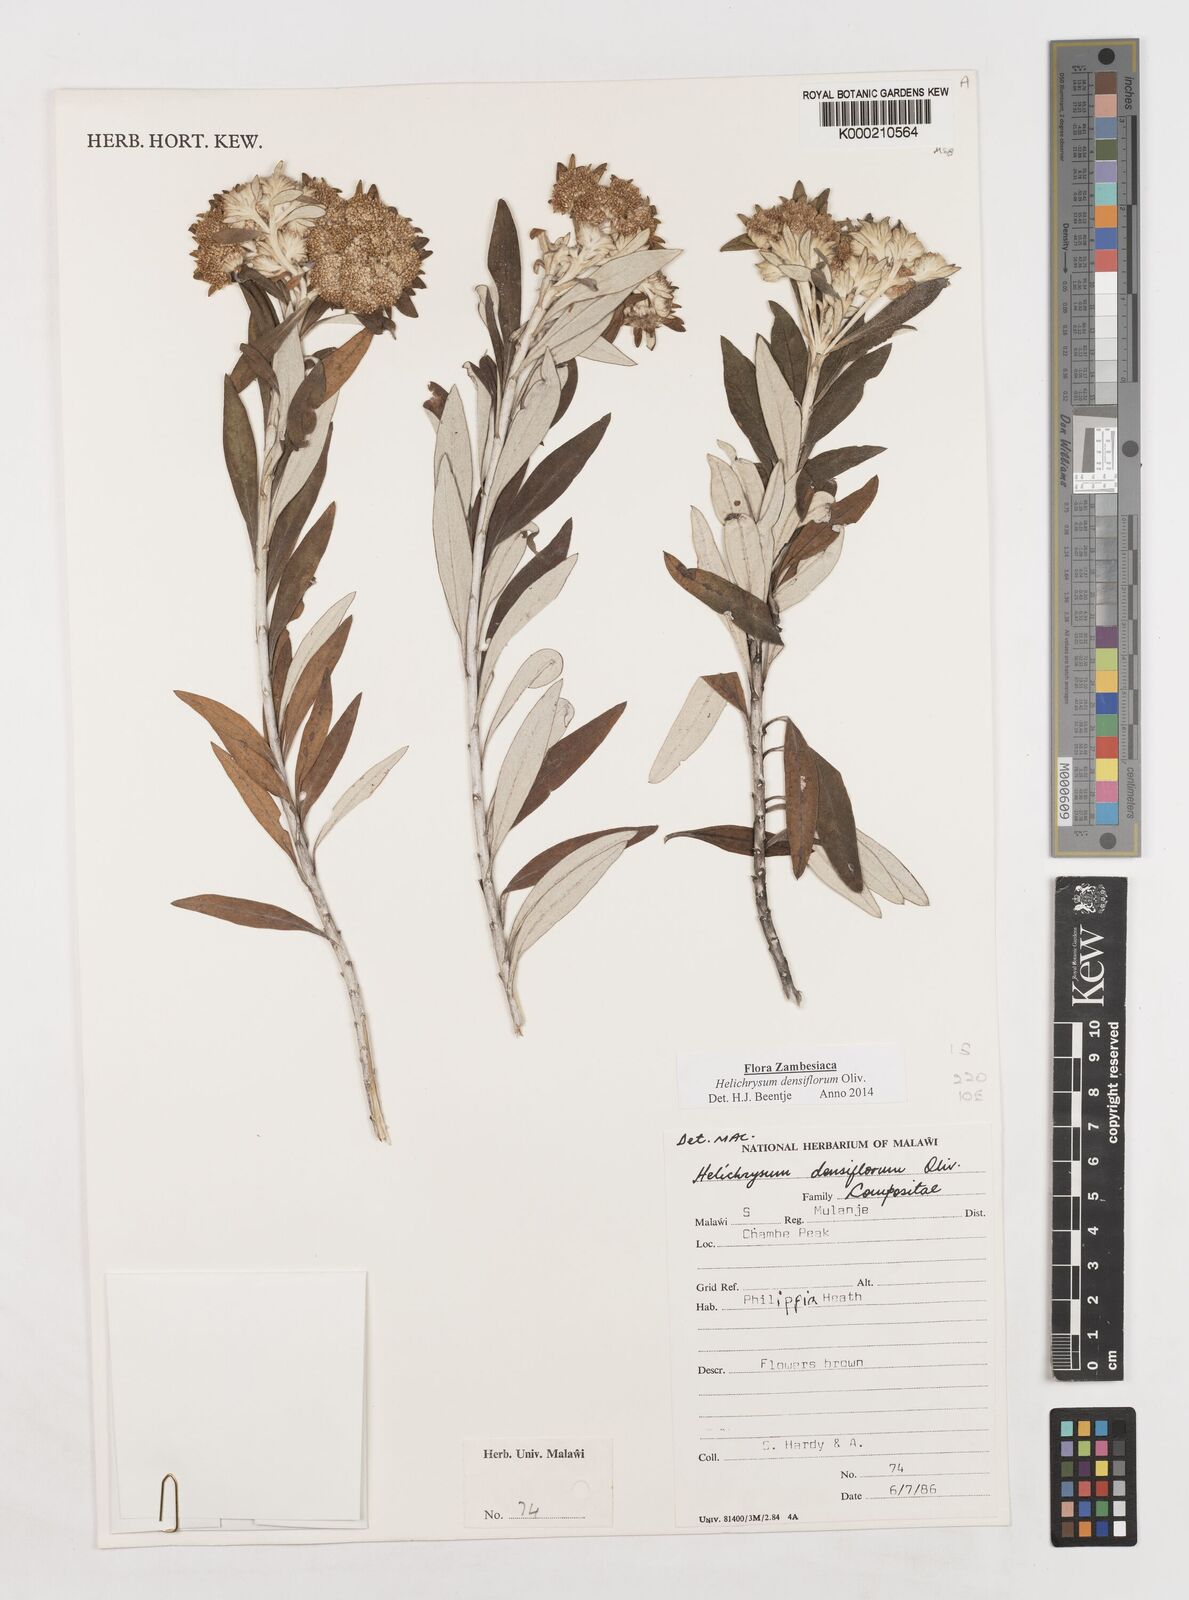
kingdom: Plantae
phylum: Tracheophyta
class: Magnoliopsida
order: Asterales
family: Asteraceae
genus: Helichrysum
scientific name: Helichrysum densiflorum
